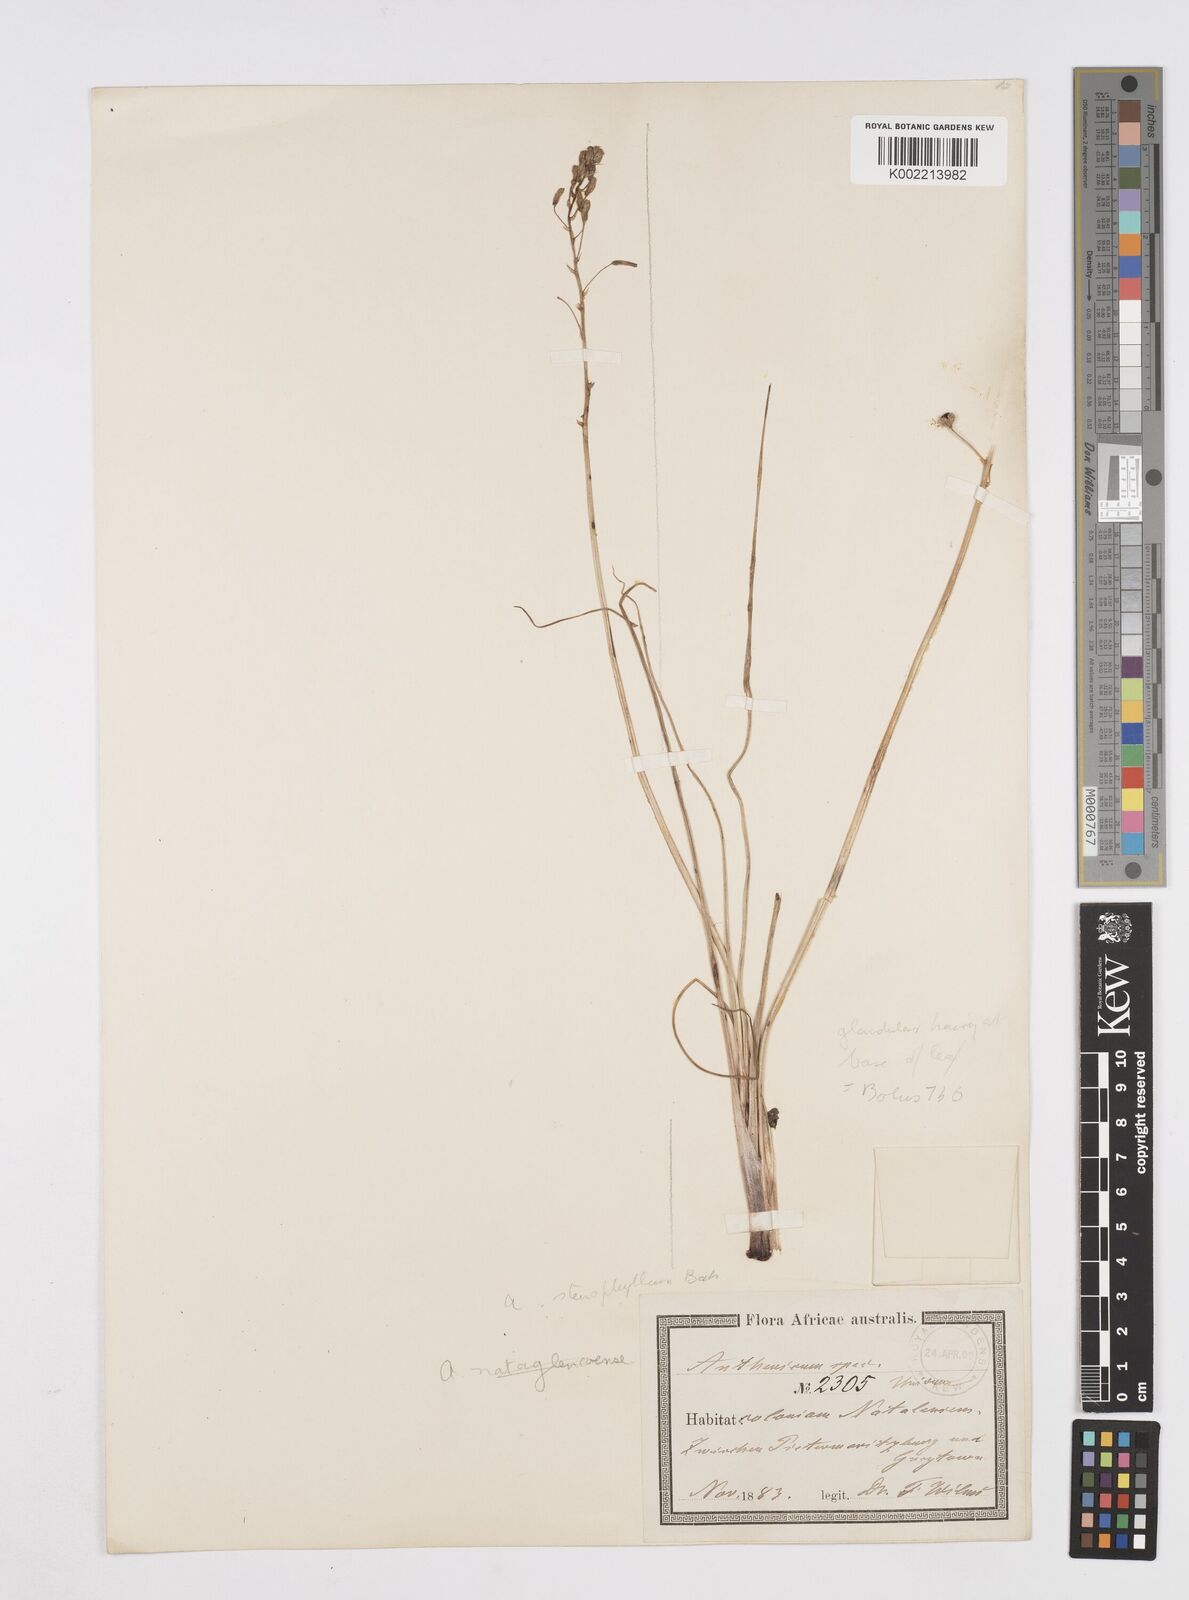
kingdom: Plantae
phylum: Tracheophyta
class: Liliopsida
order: Asparagales
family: Asphodelaceae
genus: Trachyandra
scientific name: Trachyandra
